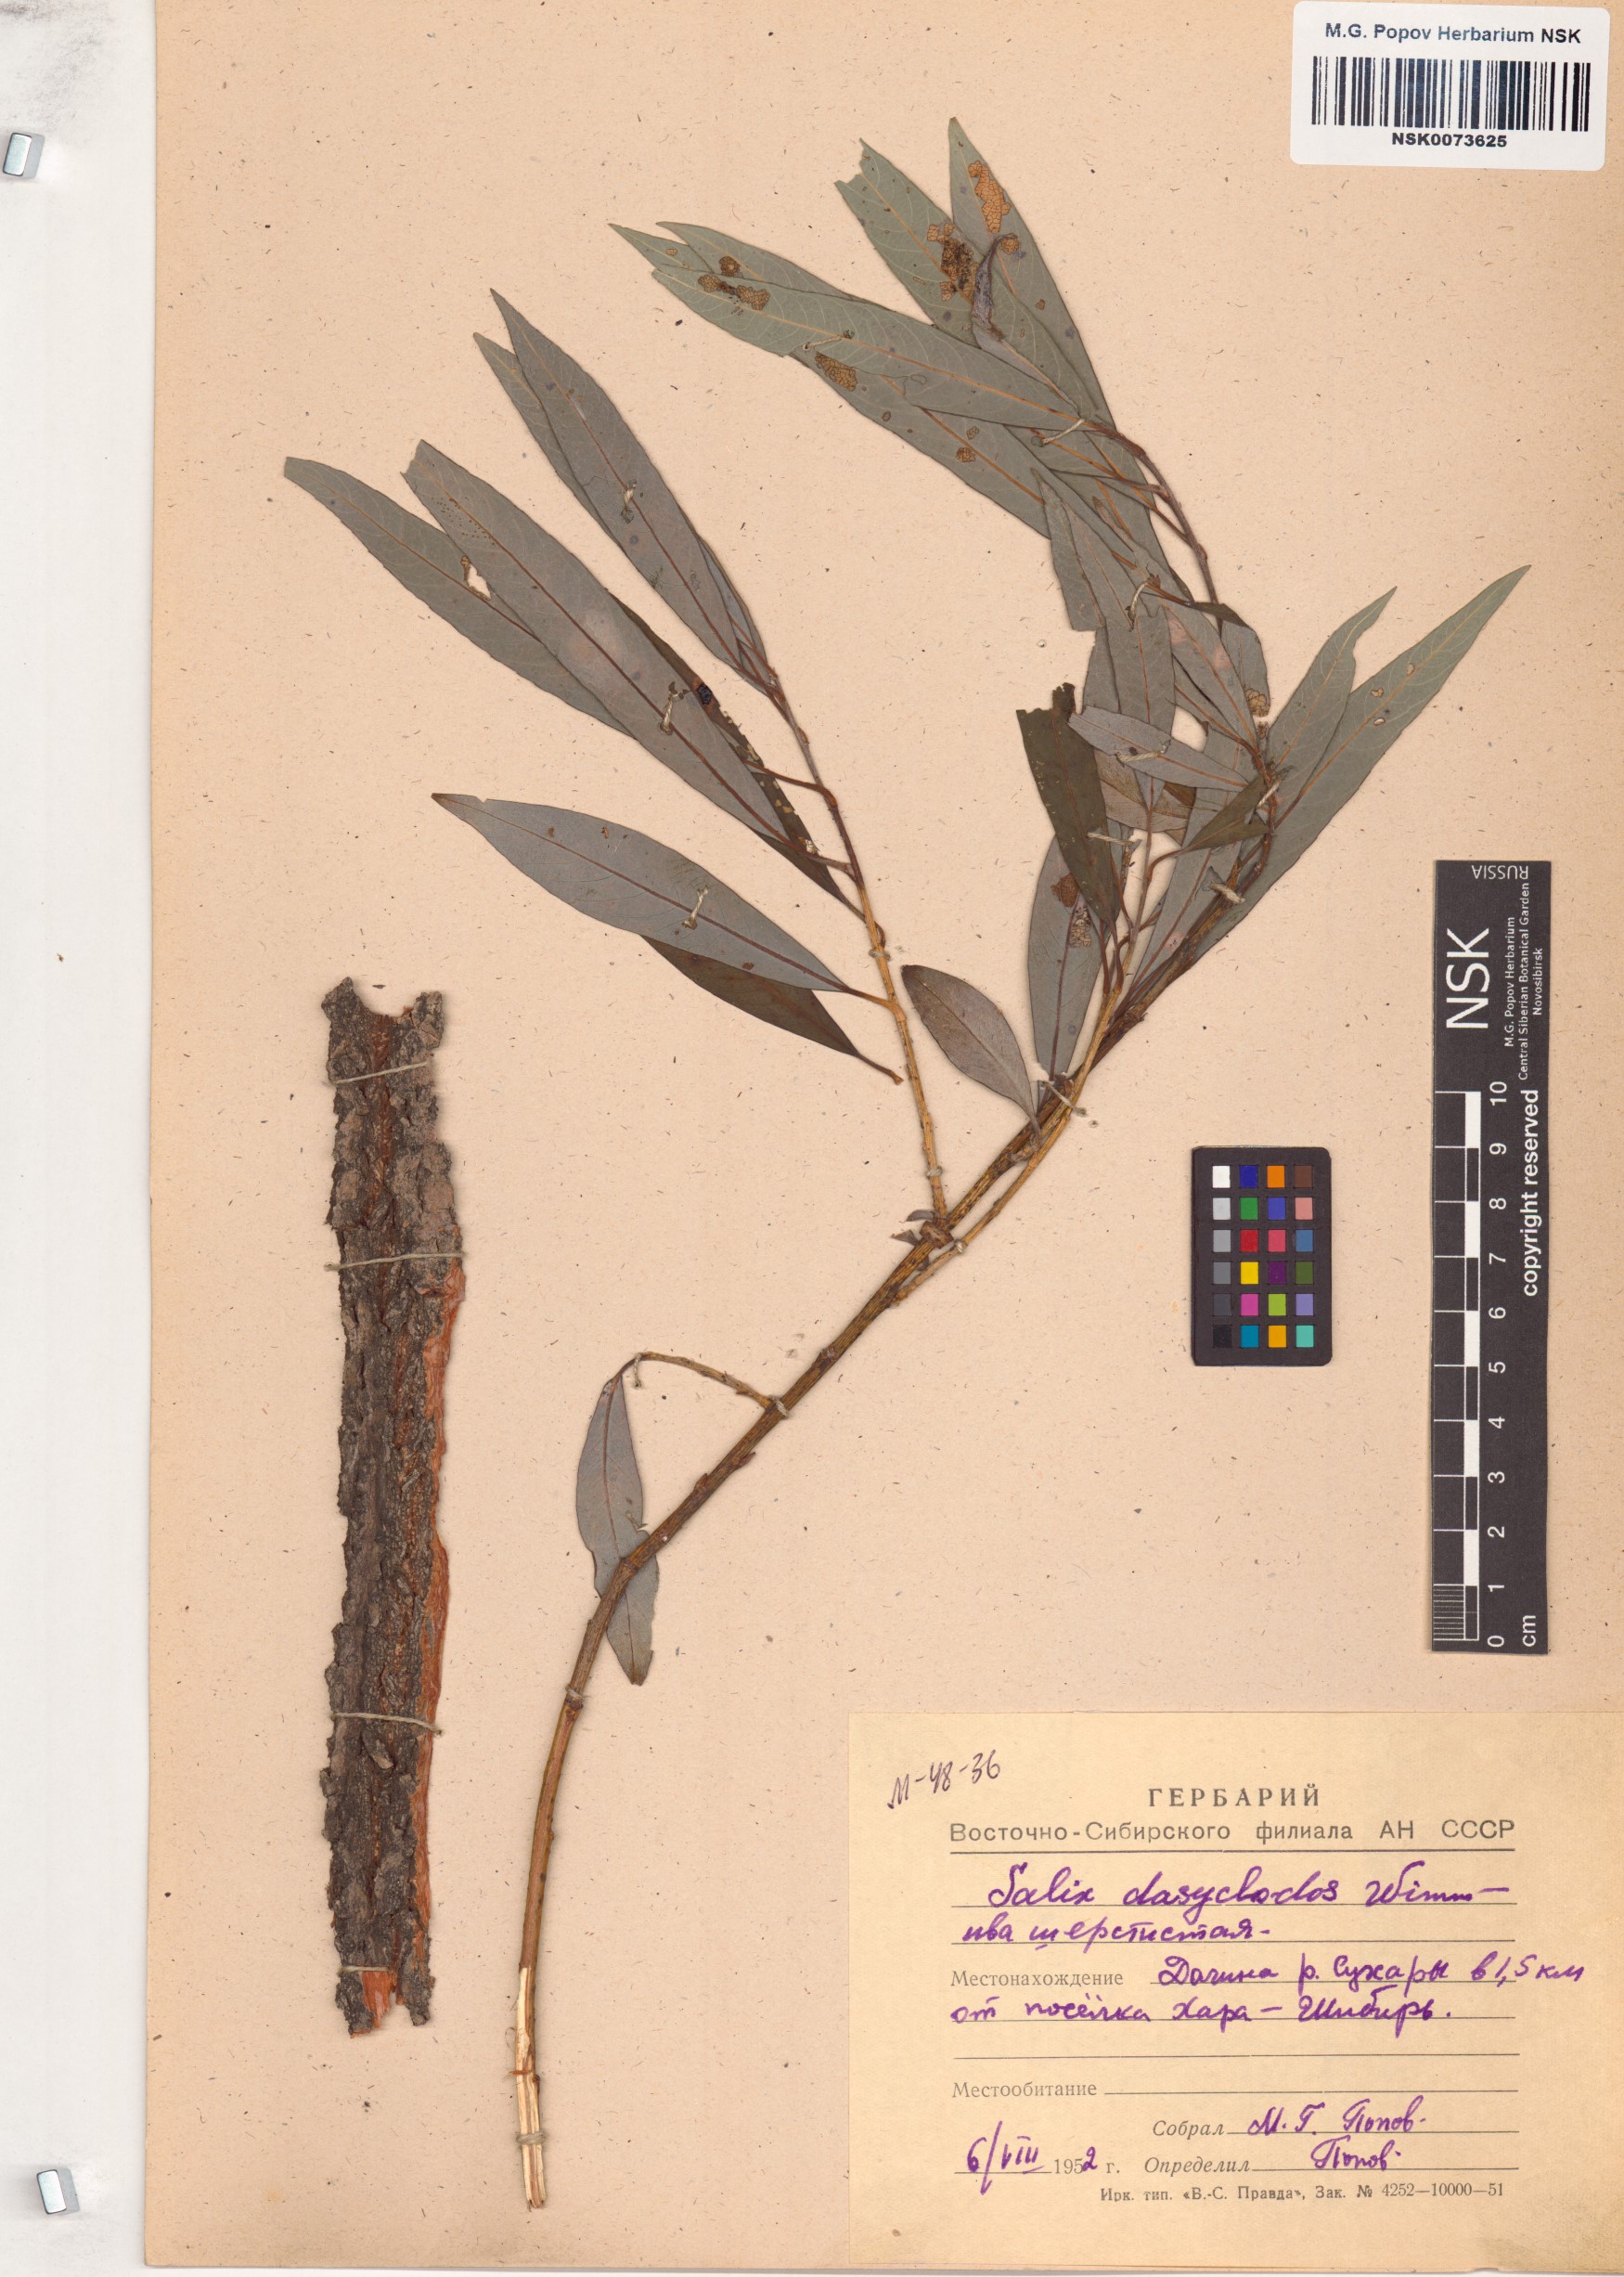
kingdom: Plantae
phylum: Tracheophyta
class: Magnoliopsida
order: Malpighiales
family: Salicaceae
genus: Salix
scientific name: Salix gmelinii
